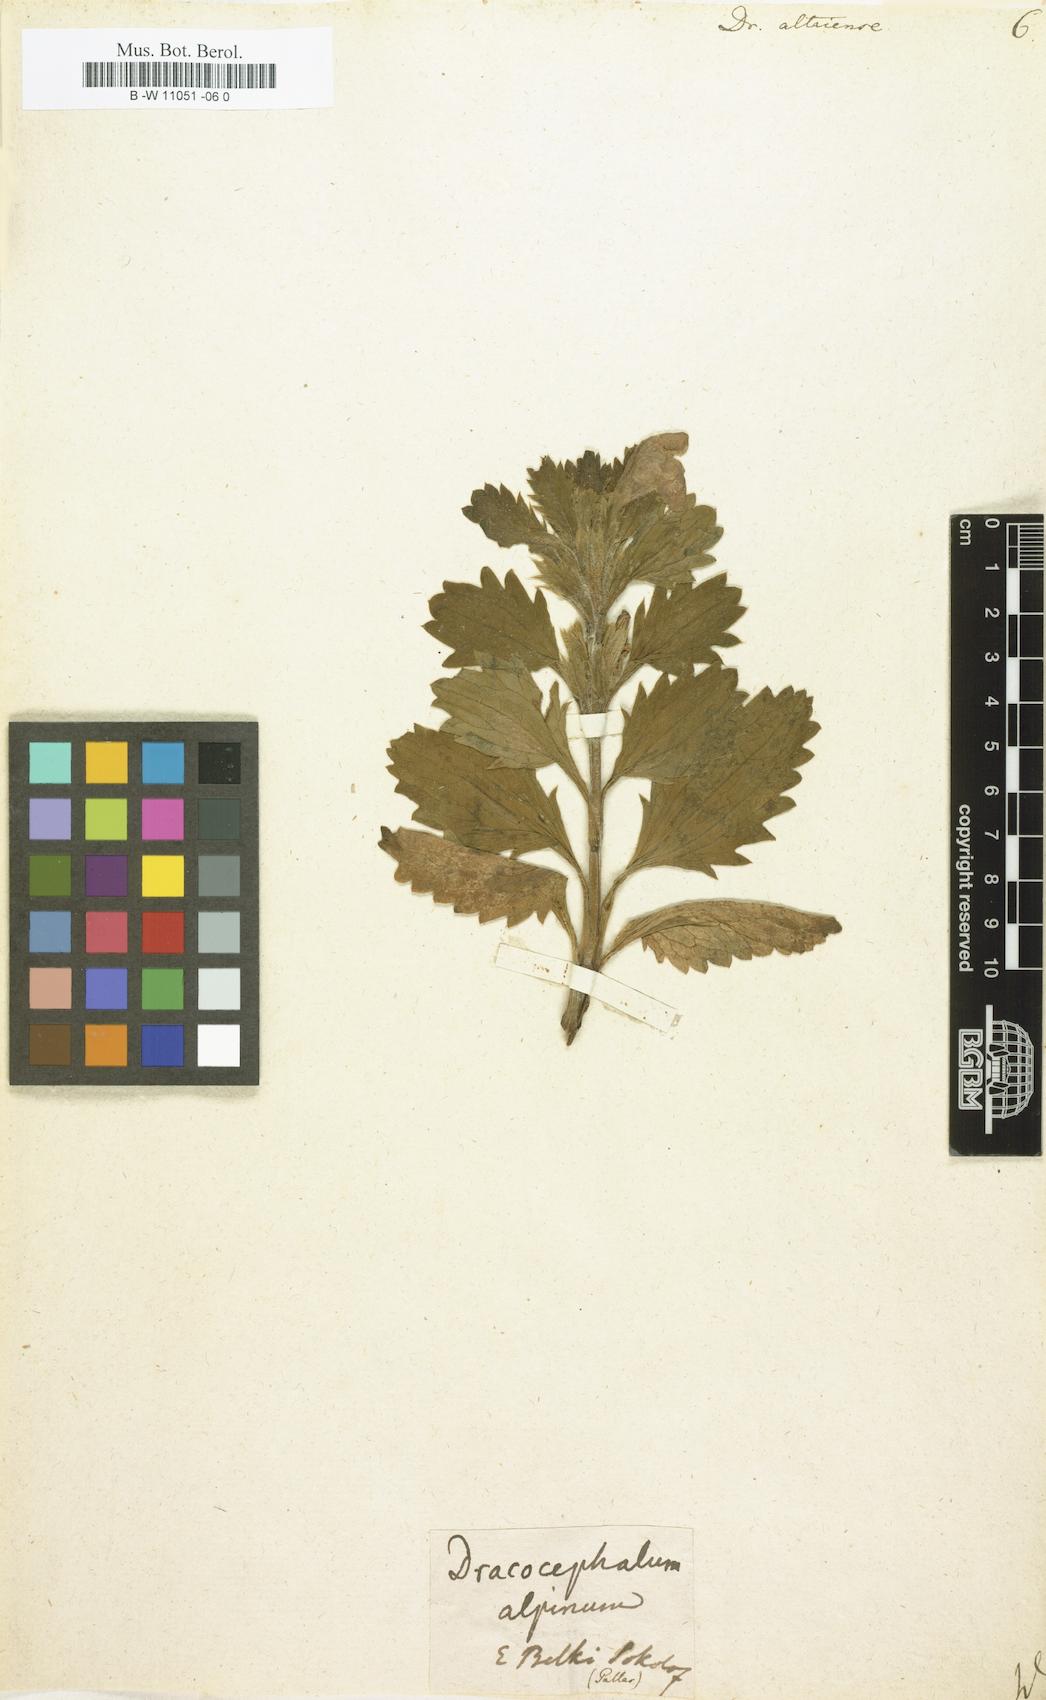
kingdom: Plantae
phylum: Tracheophyta
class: Magnoliopsida
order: Lamiales
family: Lamiaceae
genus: Dracocephalum
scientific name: Dracocephalum
